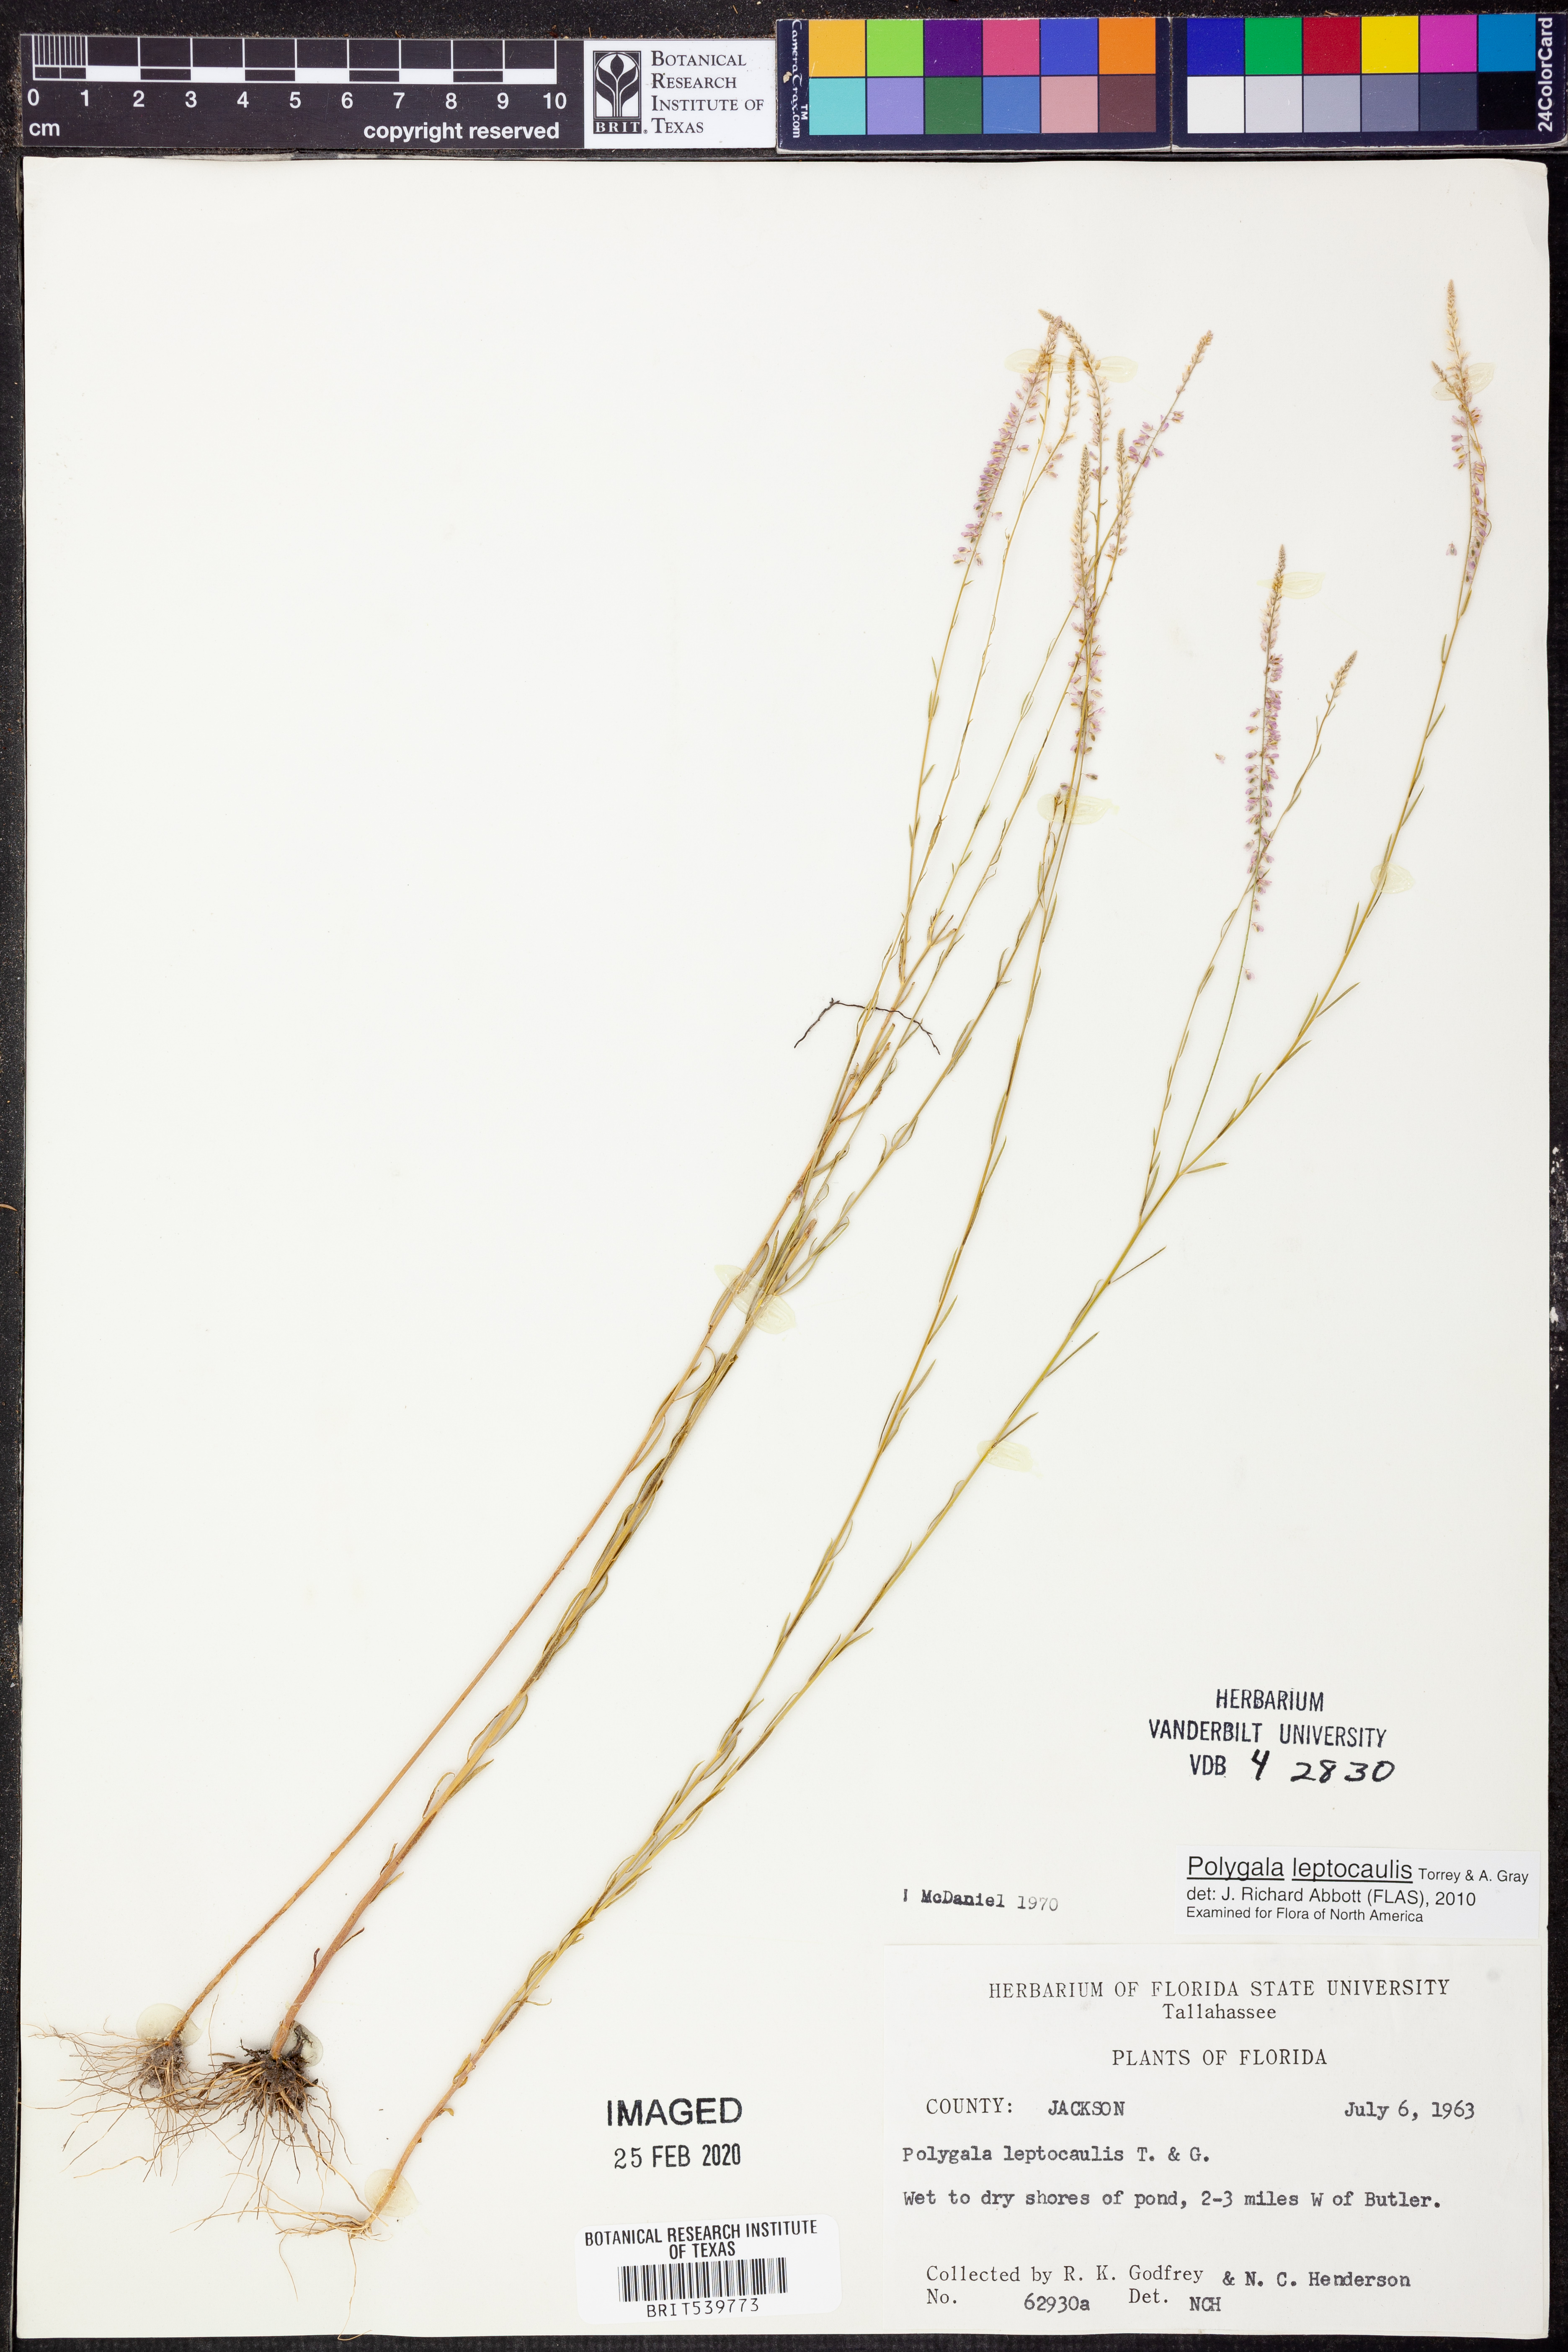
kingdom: Plantae
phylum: Tracheophyta
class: Magnoliopsida
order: Fabales
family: Polygalaceae
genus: Polygala
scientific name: Polygala tenella
